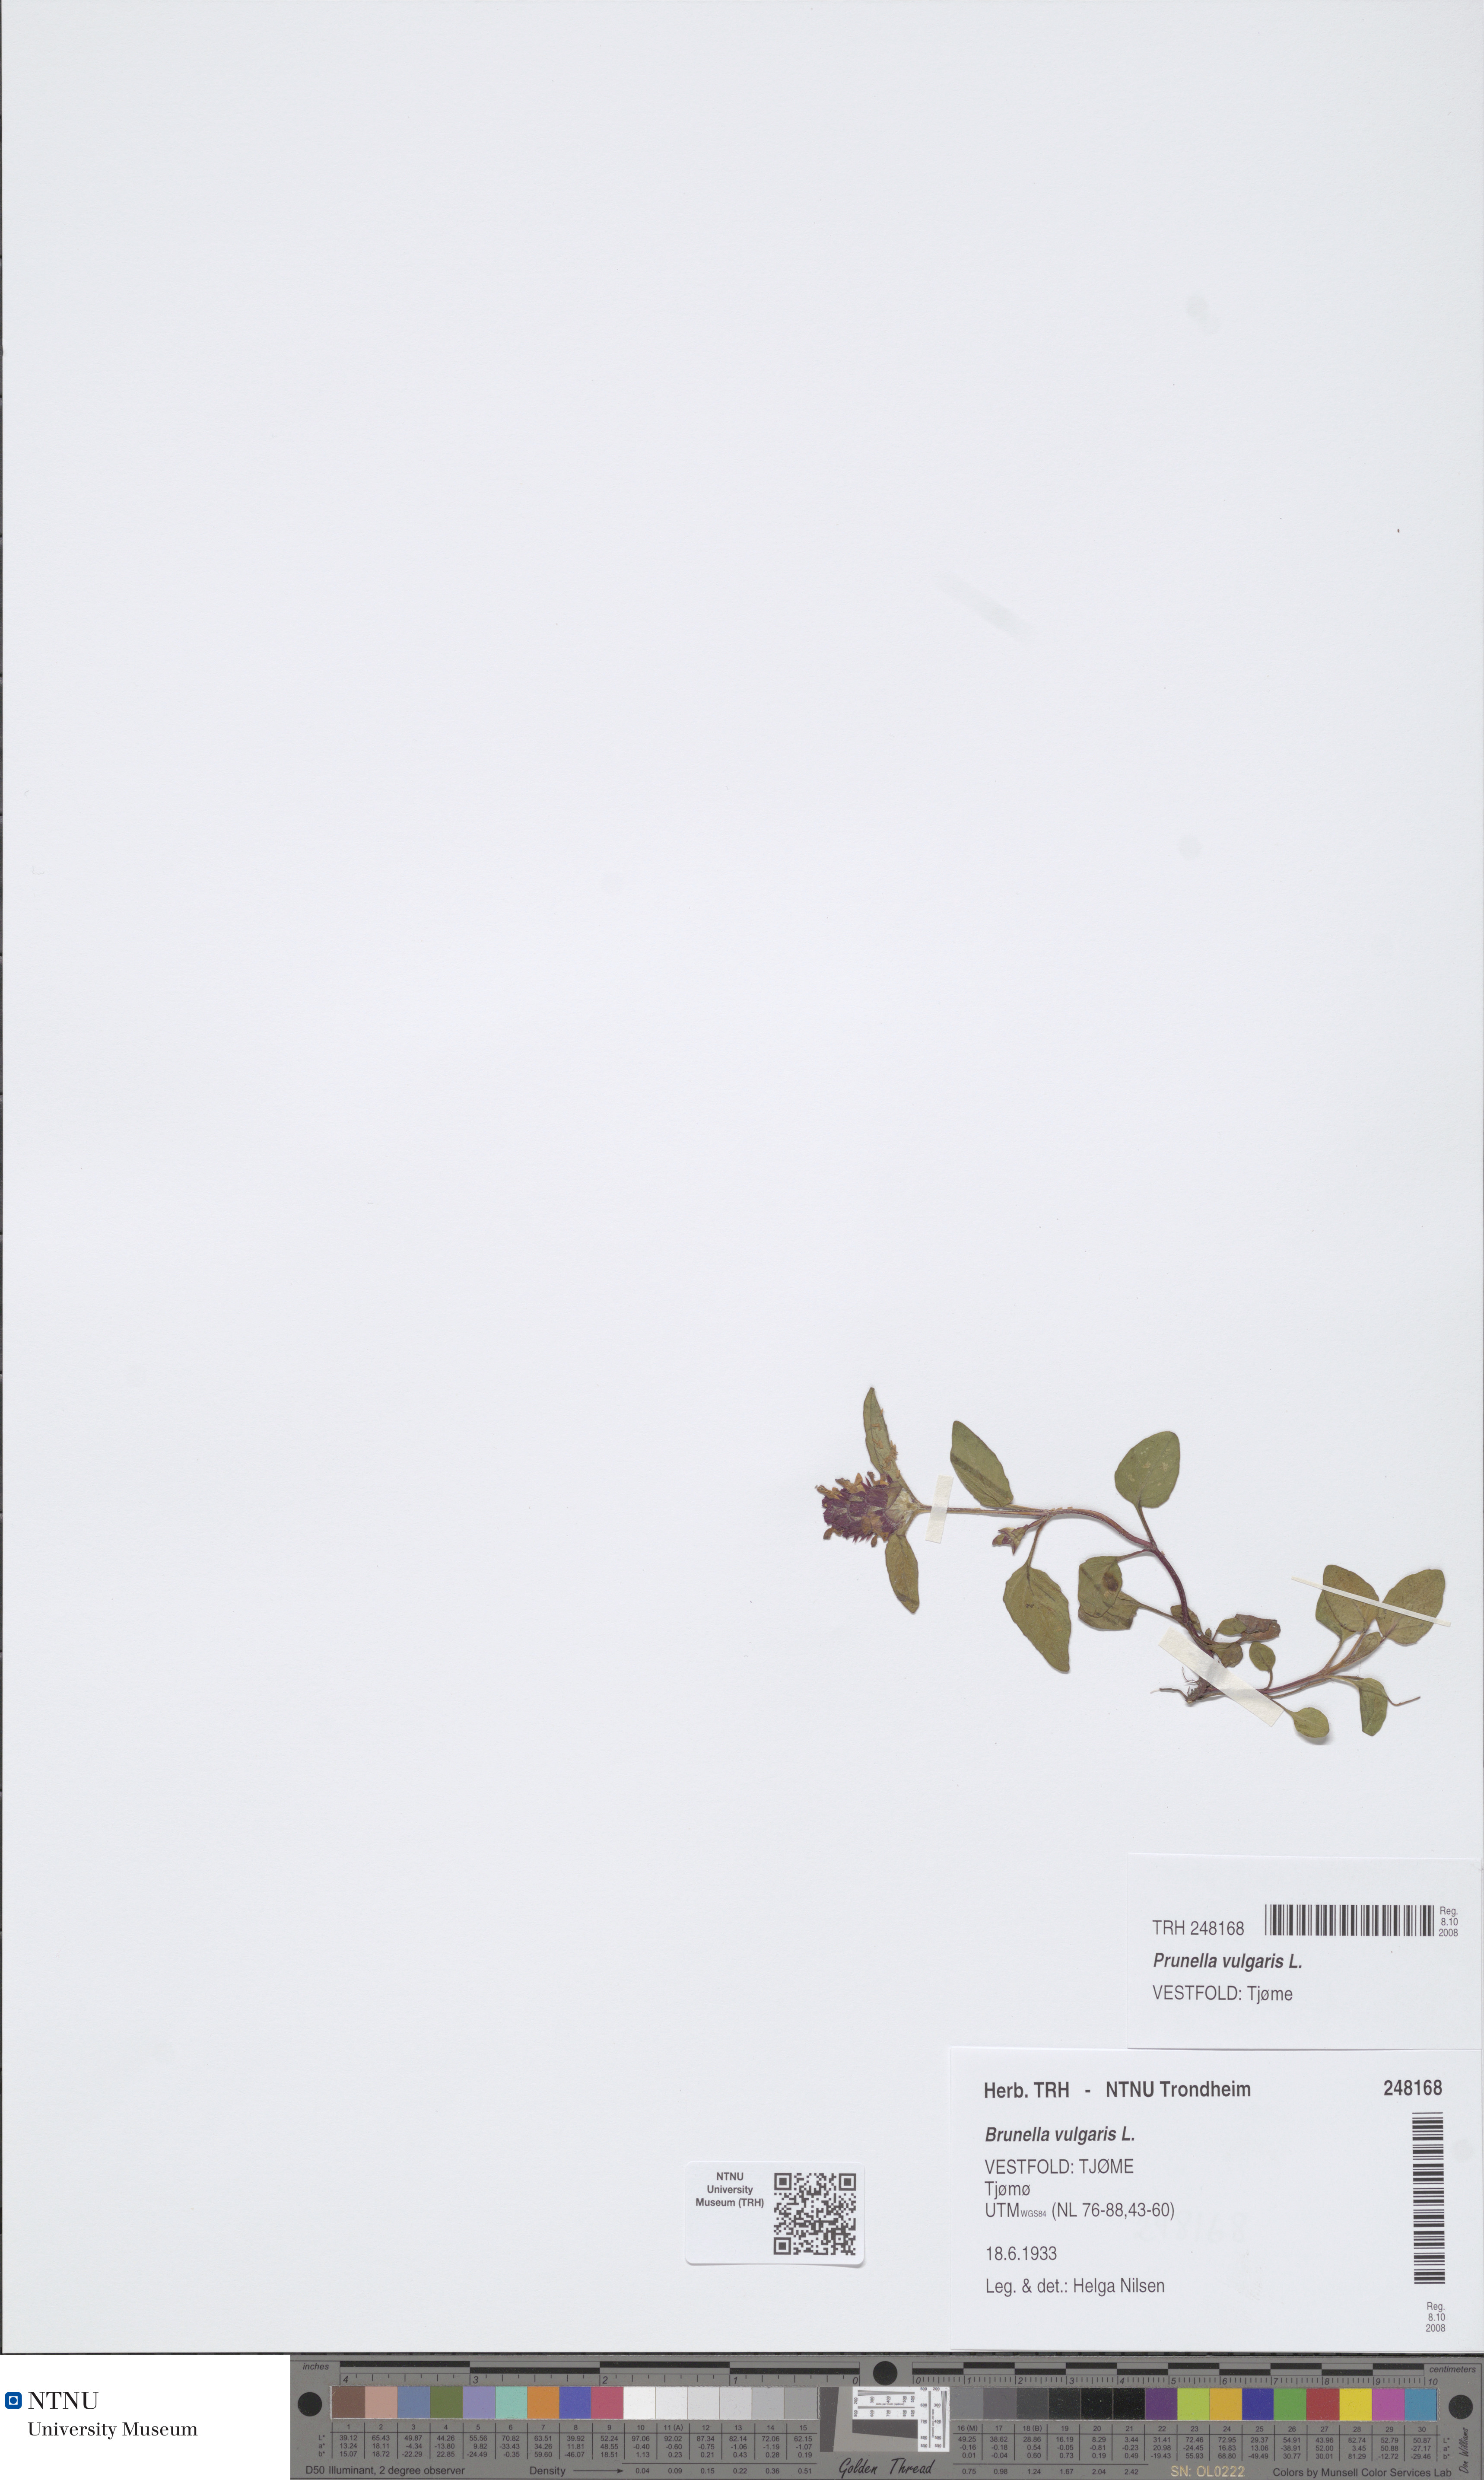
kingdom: Plantae
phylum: Tracheophyta
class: Magnoliopsida
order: Lamiales
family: Lamiaceae
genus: Prunella
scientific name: Prunella vulgaris
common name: Heal-all
